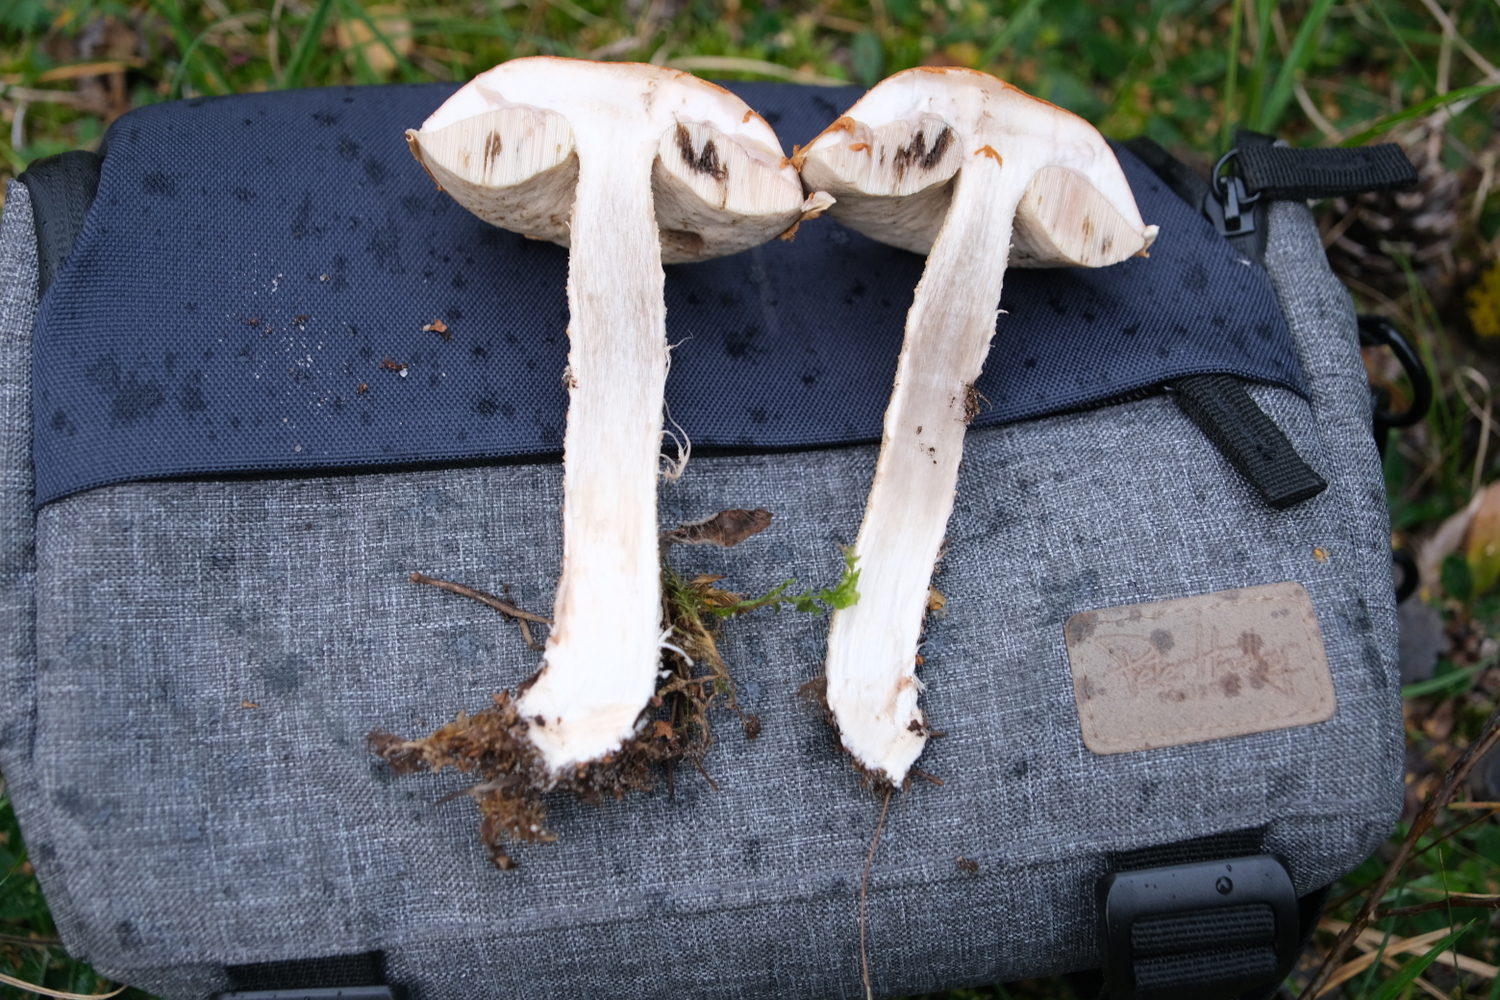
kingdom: Fungi
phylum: Basidiomycota
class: Agaricomycetes
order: Boletales
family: Boletaceae
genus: Leccinum
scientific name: Leccinum albostipitatum
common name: aspe-skælrørhat
